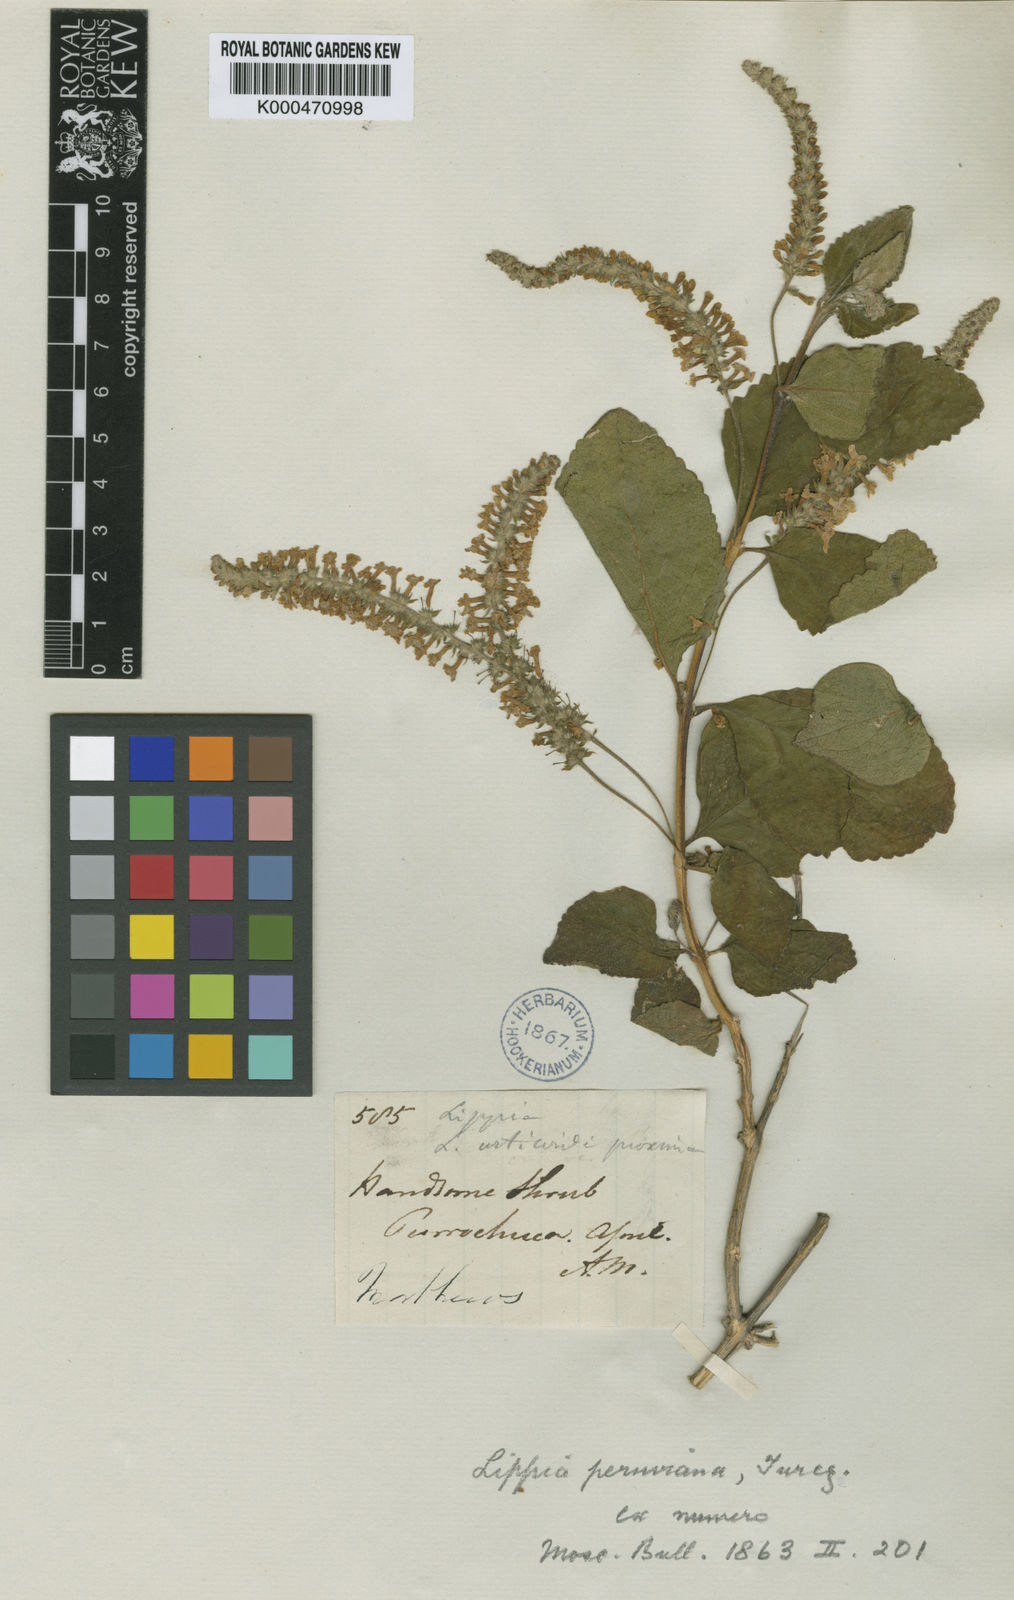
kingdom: Plantae
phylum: Tracheophyta
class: Magnoliopsida
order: Lamiales
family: Verbenaceae
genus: Aloysia
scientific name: Aloysia peruviana
